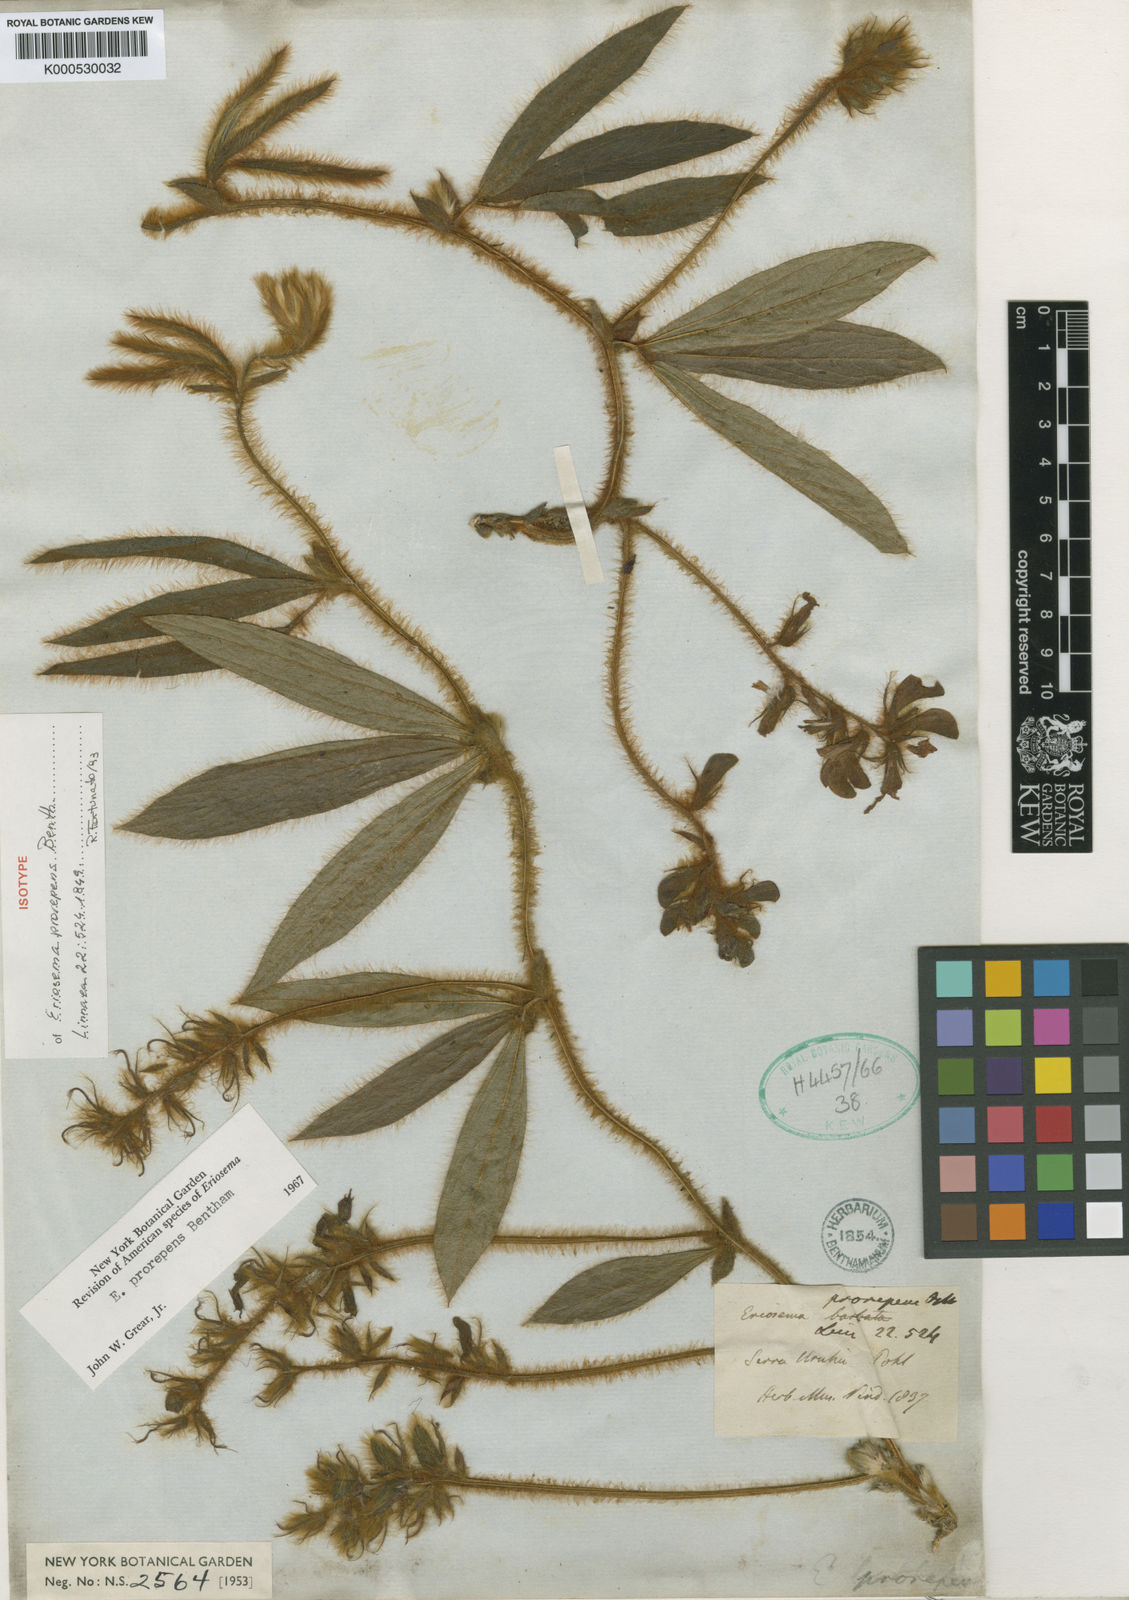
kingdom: Plantae
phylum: Tracheophyta
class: Magnoliopsida
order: Fabales
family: Fabaceae
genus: Eriosema
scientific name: Eriosema prorepens
